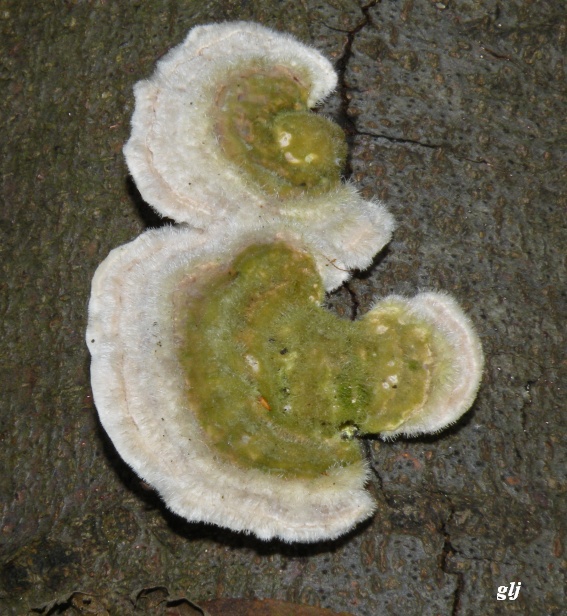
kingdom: Fungi
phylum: Basidiomycota
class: Agaricomycetes
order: Polyporales
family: Polyporaceae
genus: Trametes
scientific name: Trametes hirsuta
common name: håret læderporesvamp
